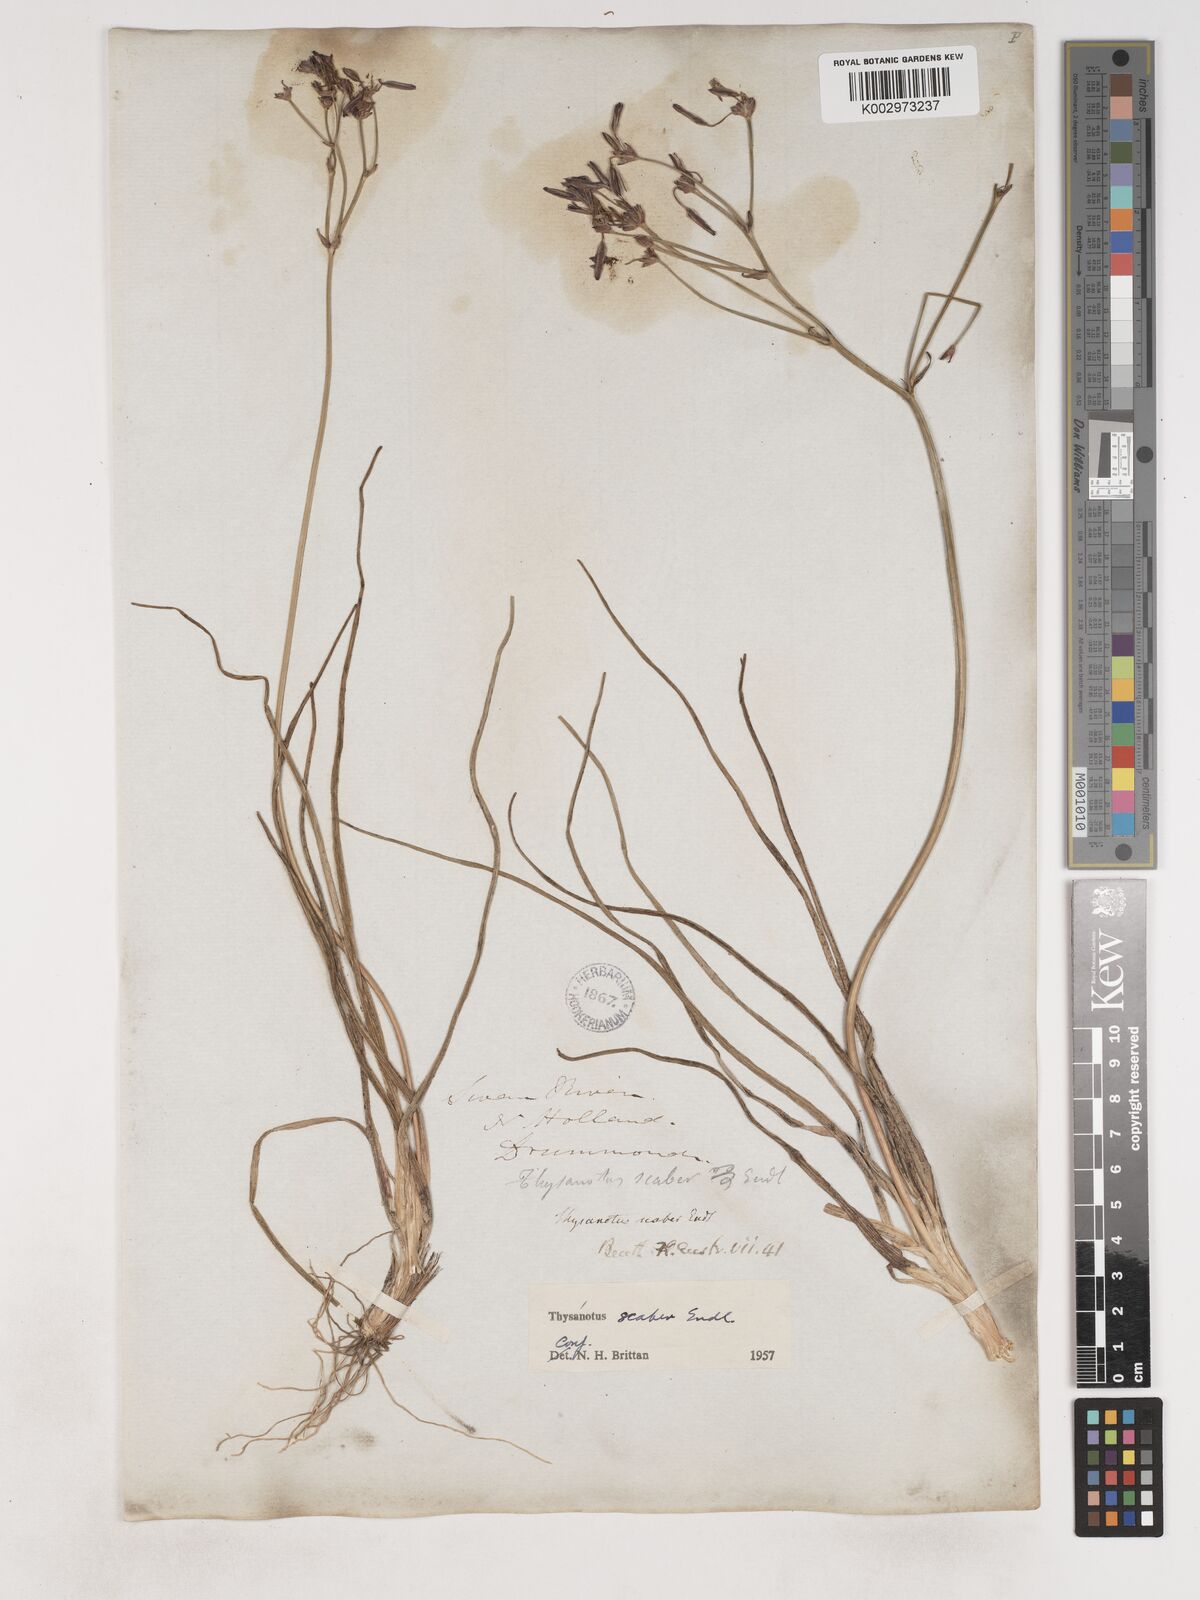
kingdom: Plantae
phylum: Tracheophyta
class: Liliopsida
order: Asparagales
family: Asparagaceae
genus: Thysanotus
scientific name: Thysanotus scaber
